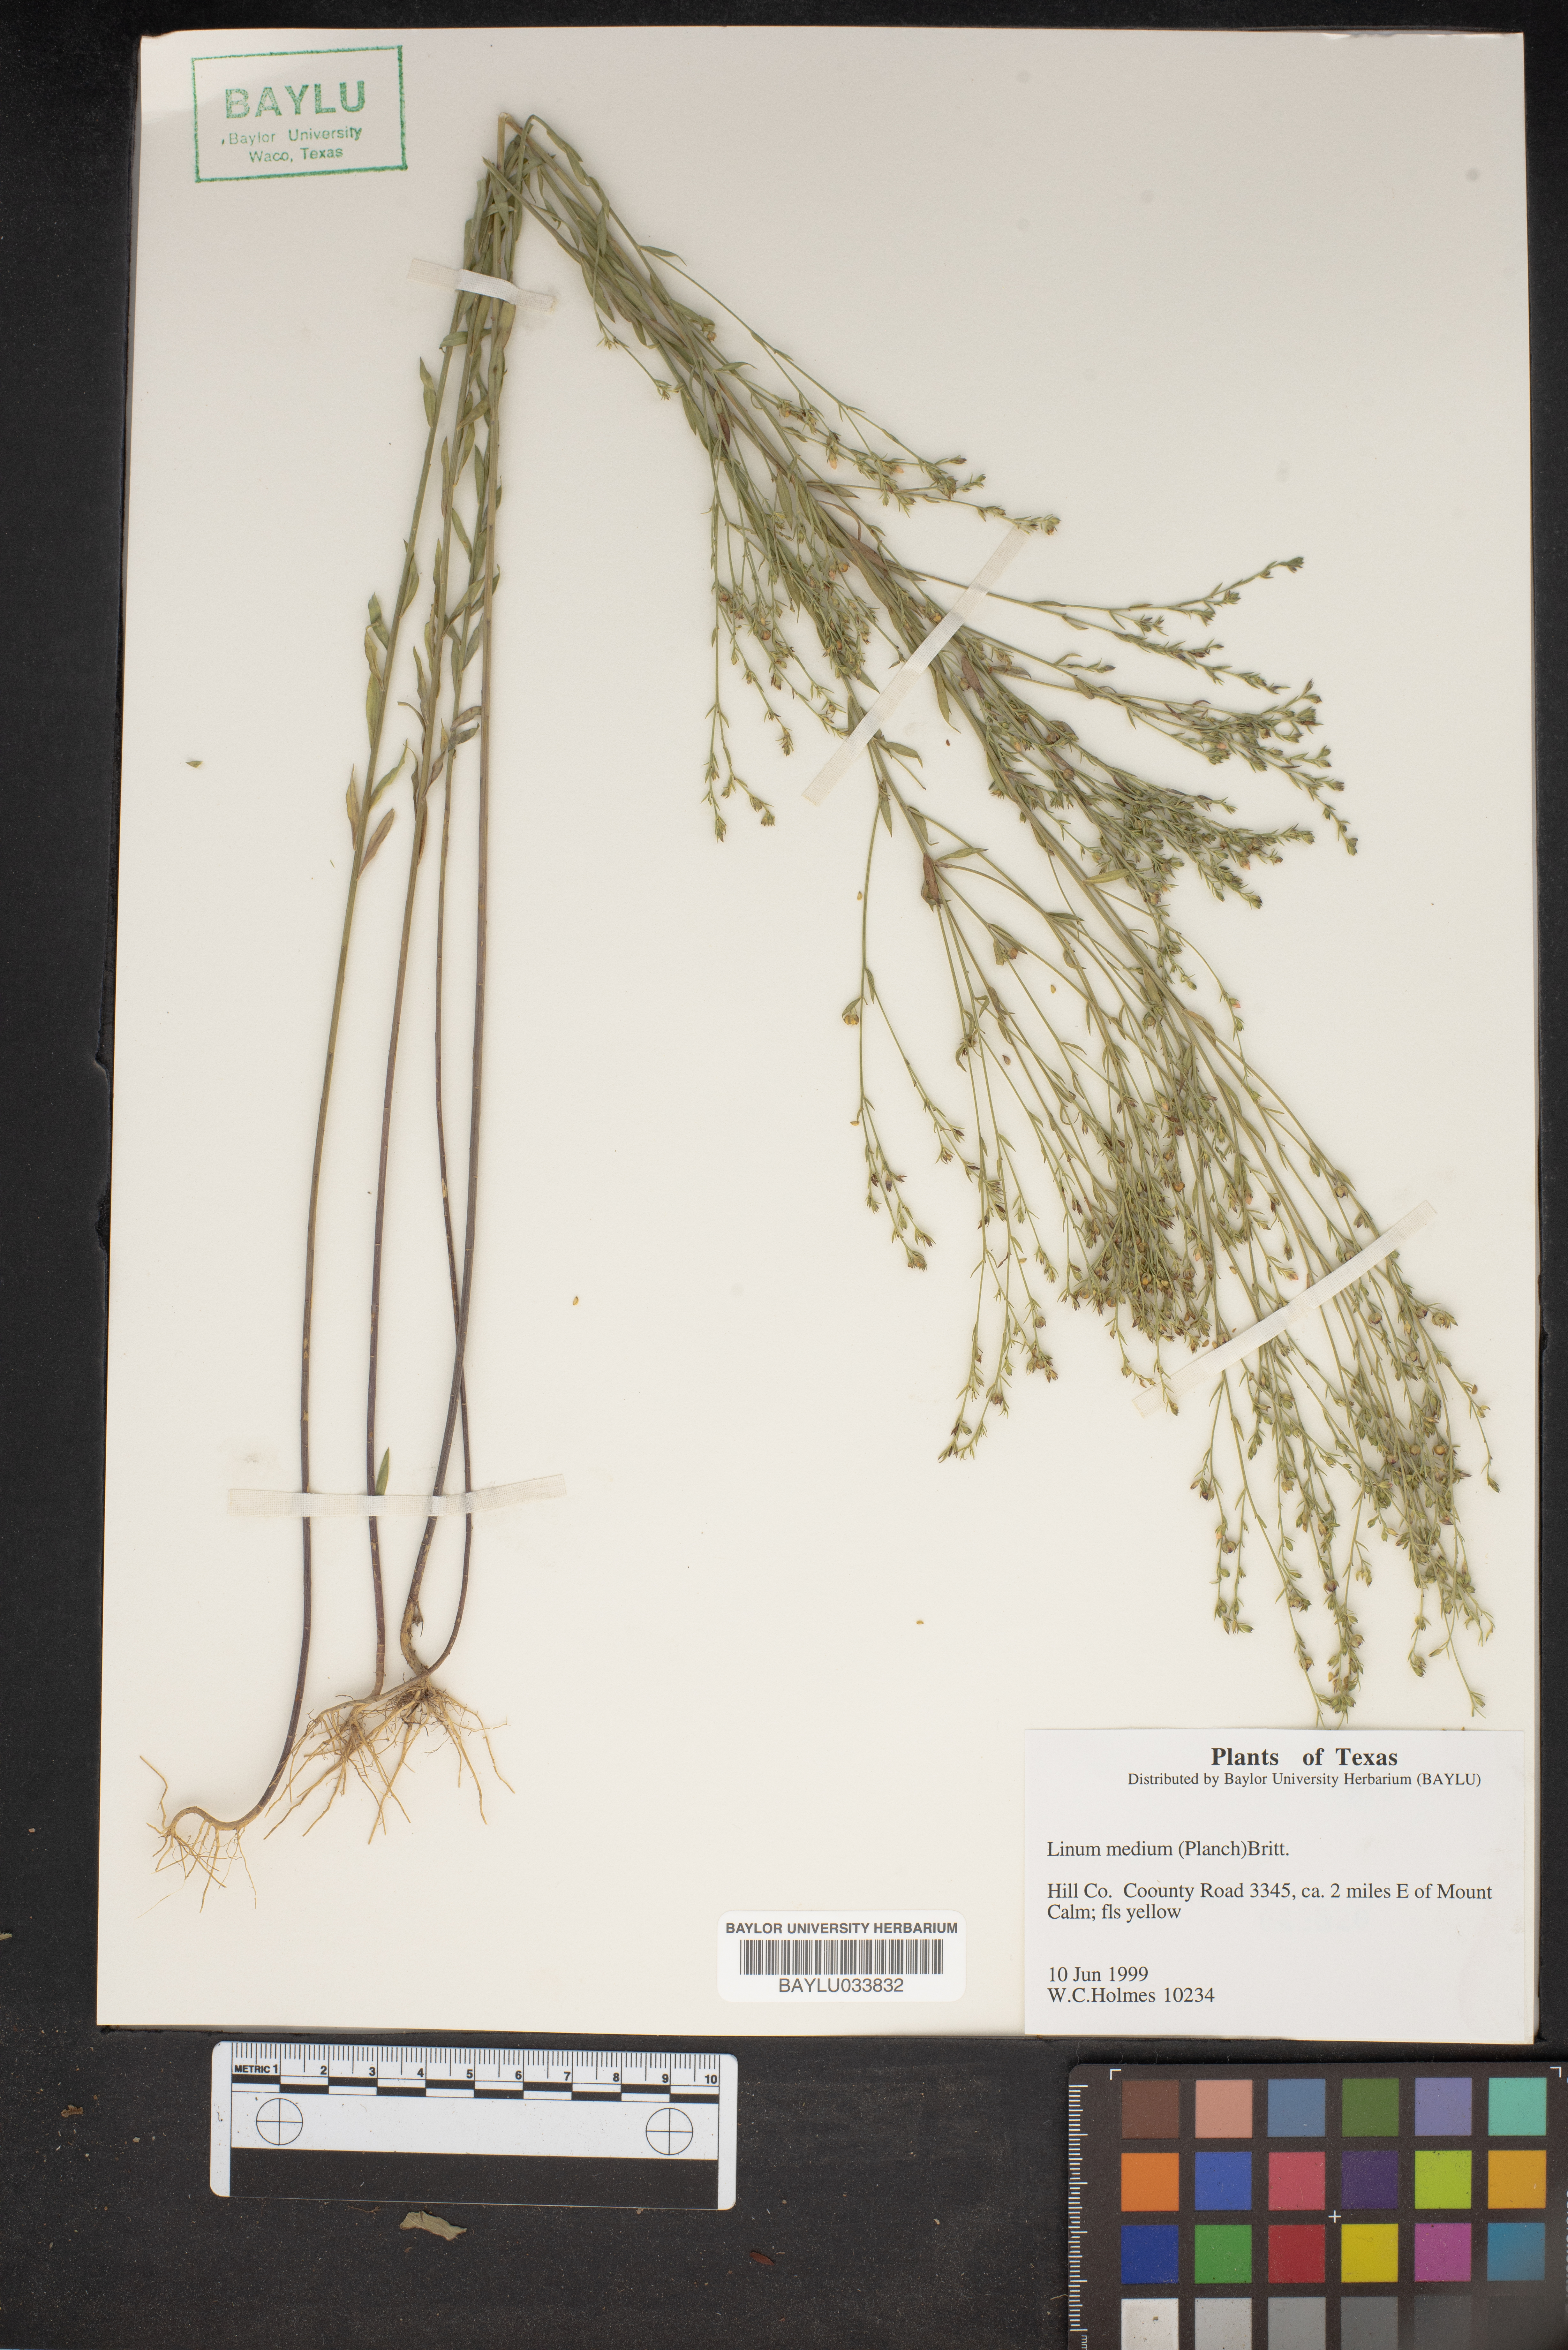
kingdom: Plantae
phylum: Tracheophyta
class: Magnoliopsida
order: Malpighiales
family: Linaceae
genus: Linum
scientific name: Linum medium
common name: Stiff yellow flax
